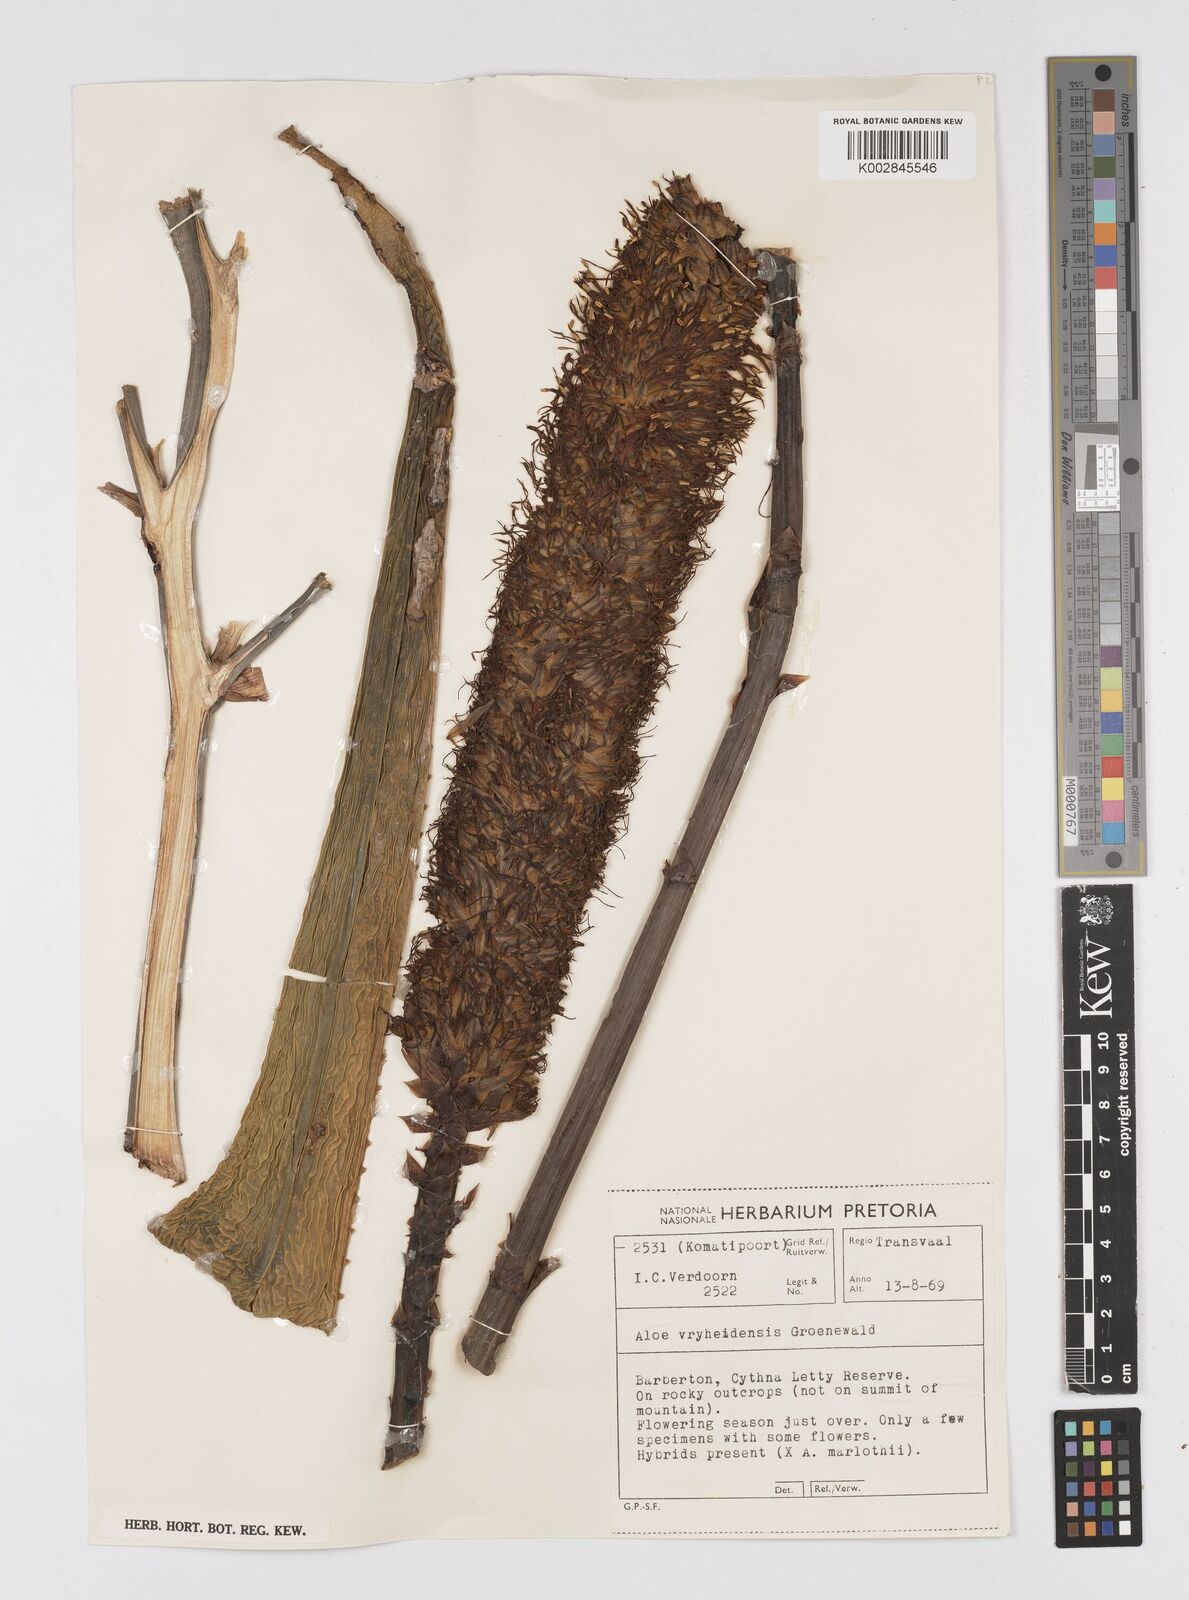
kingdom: Plantae
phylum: Tracheophyta
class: Liliopsida
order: Asparagales
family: Asphodelaceae
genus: Aloe
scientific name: Aloe vryheidensis
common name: Vryheid aloe
